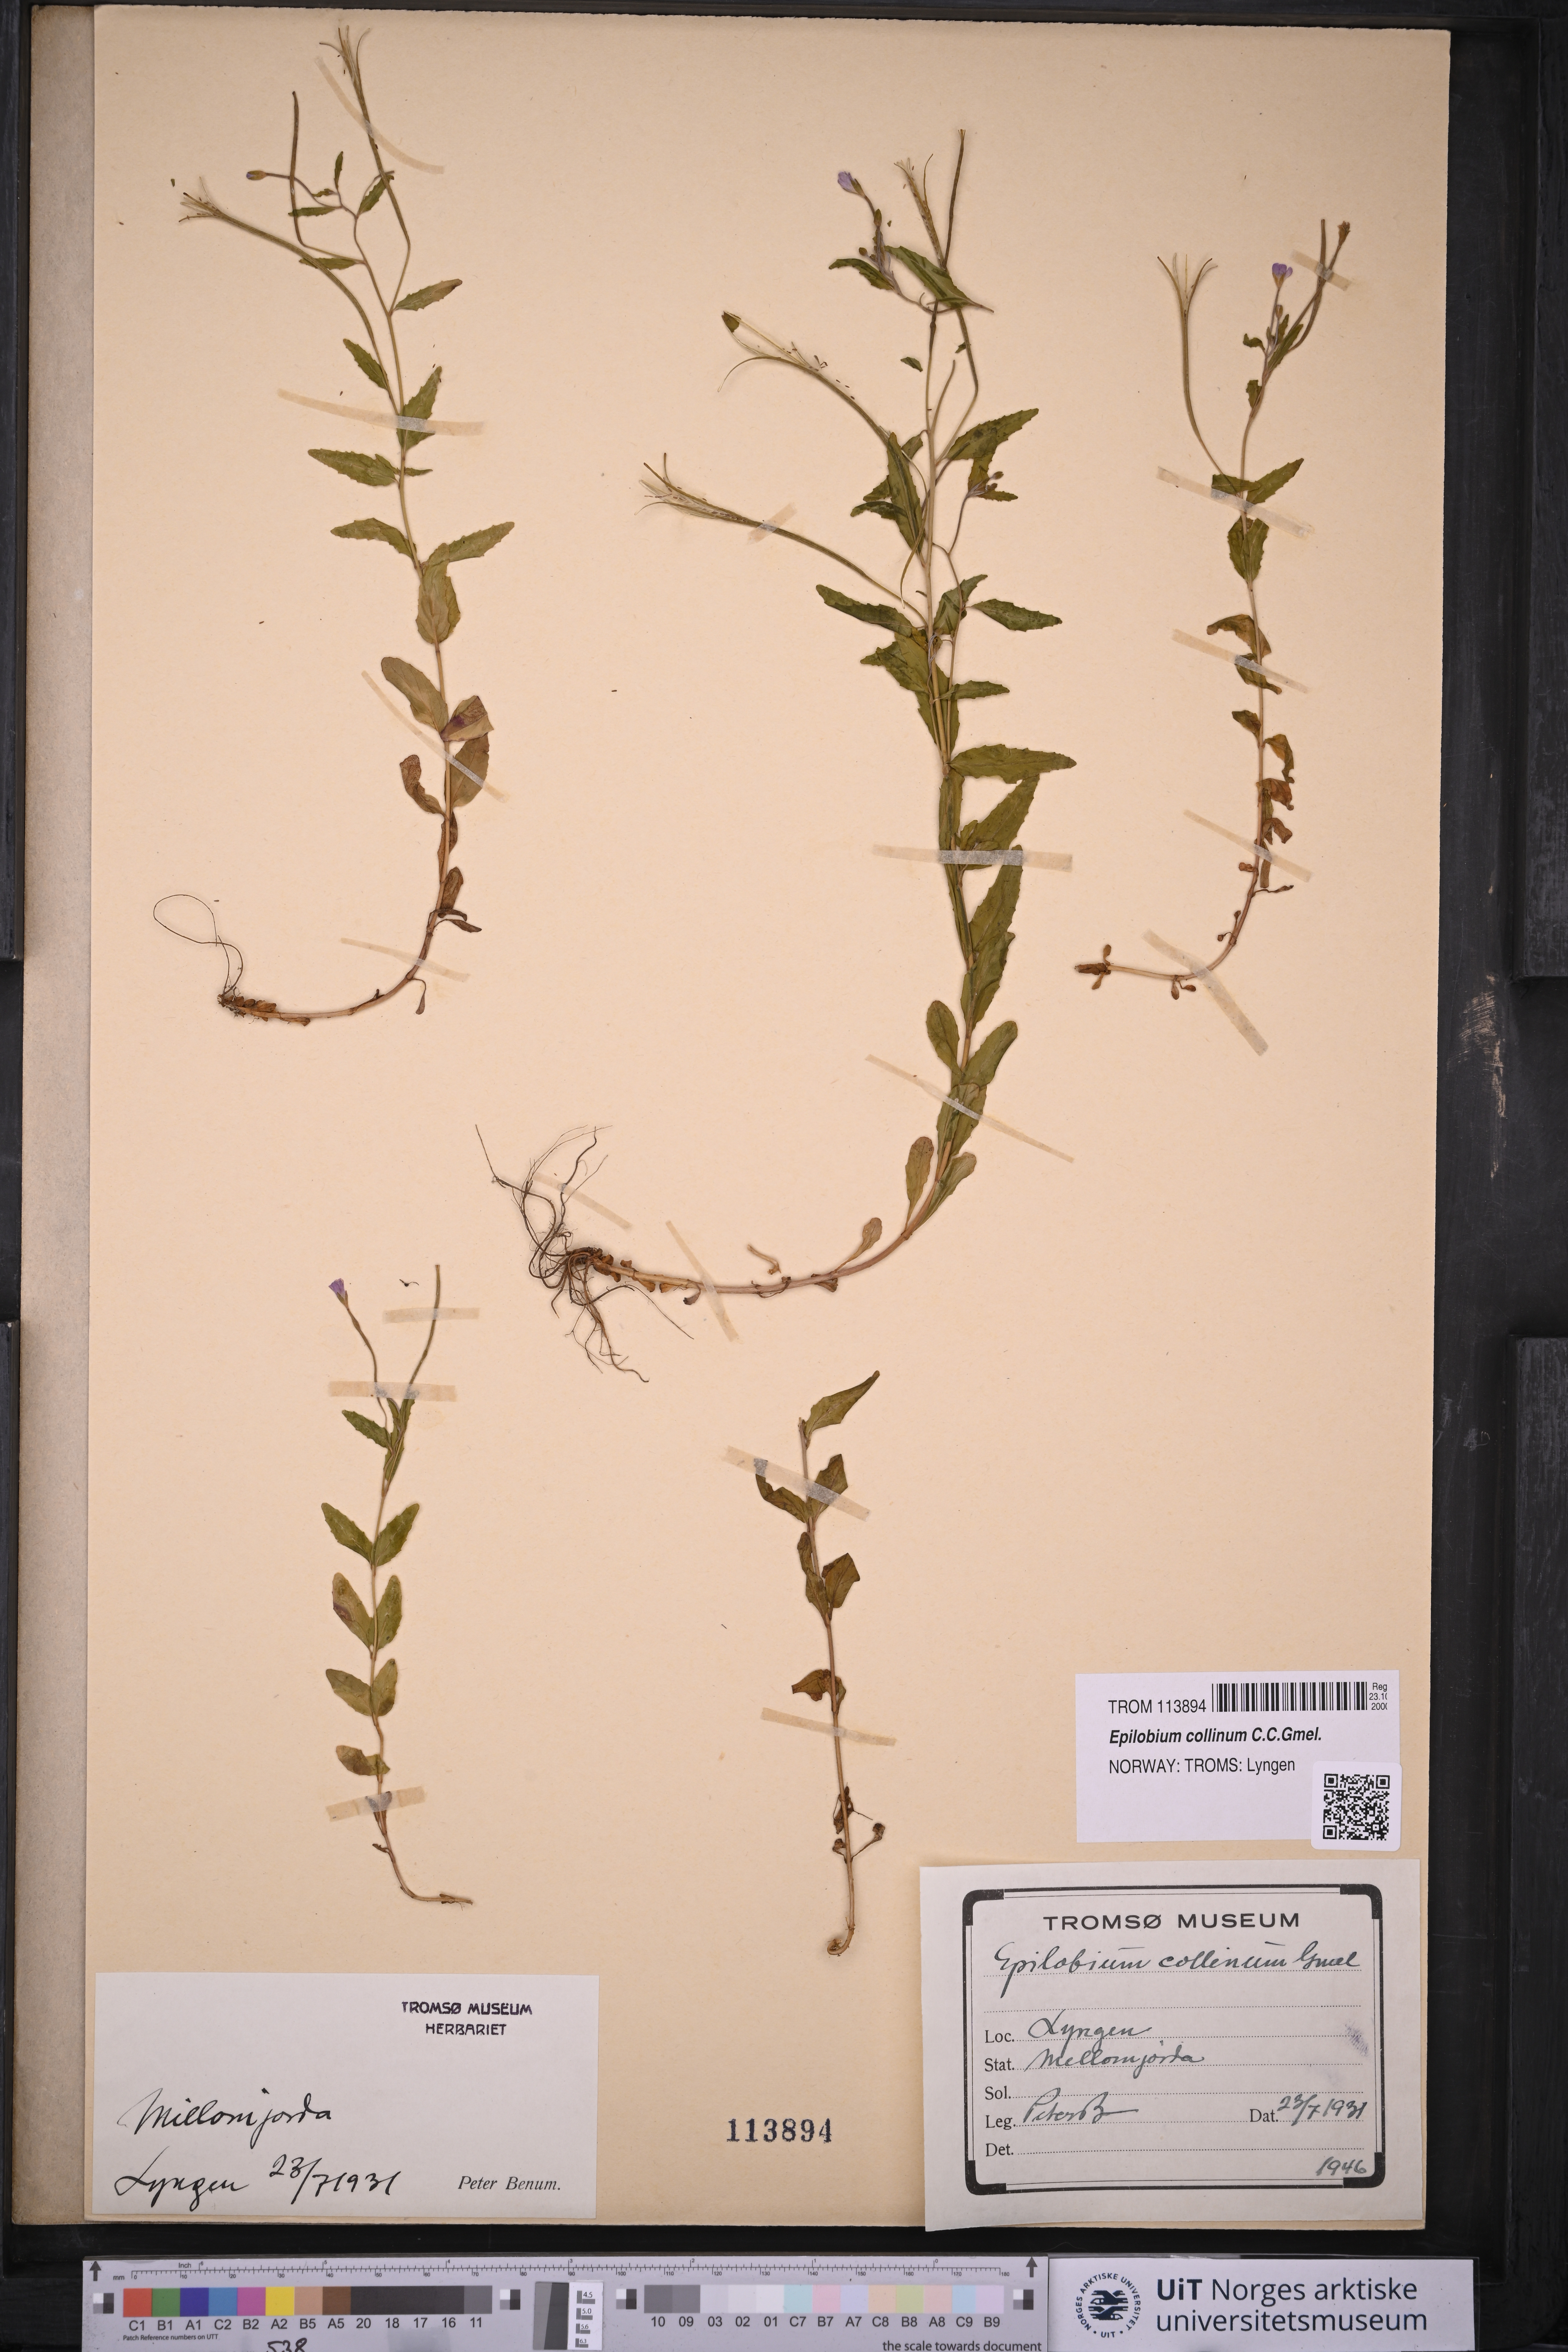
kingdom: Plantae
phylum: Tracheophyta
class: Magnoliopsida
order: Myrtales
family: Onagraceae
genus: Epilobium
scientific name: Epilobium collinum
